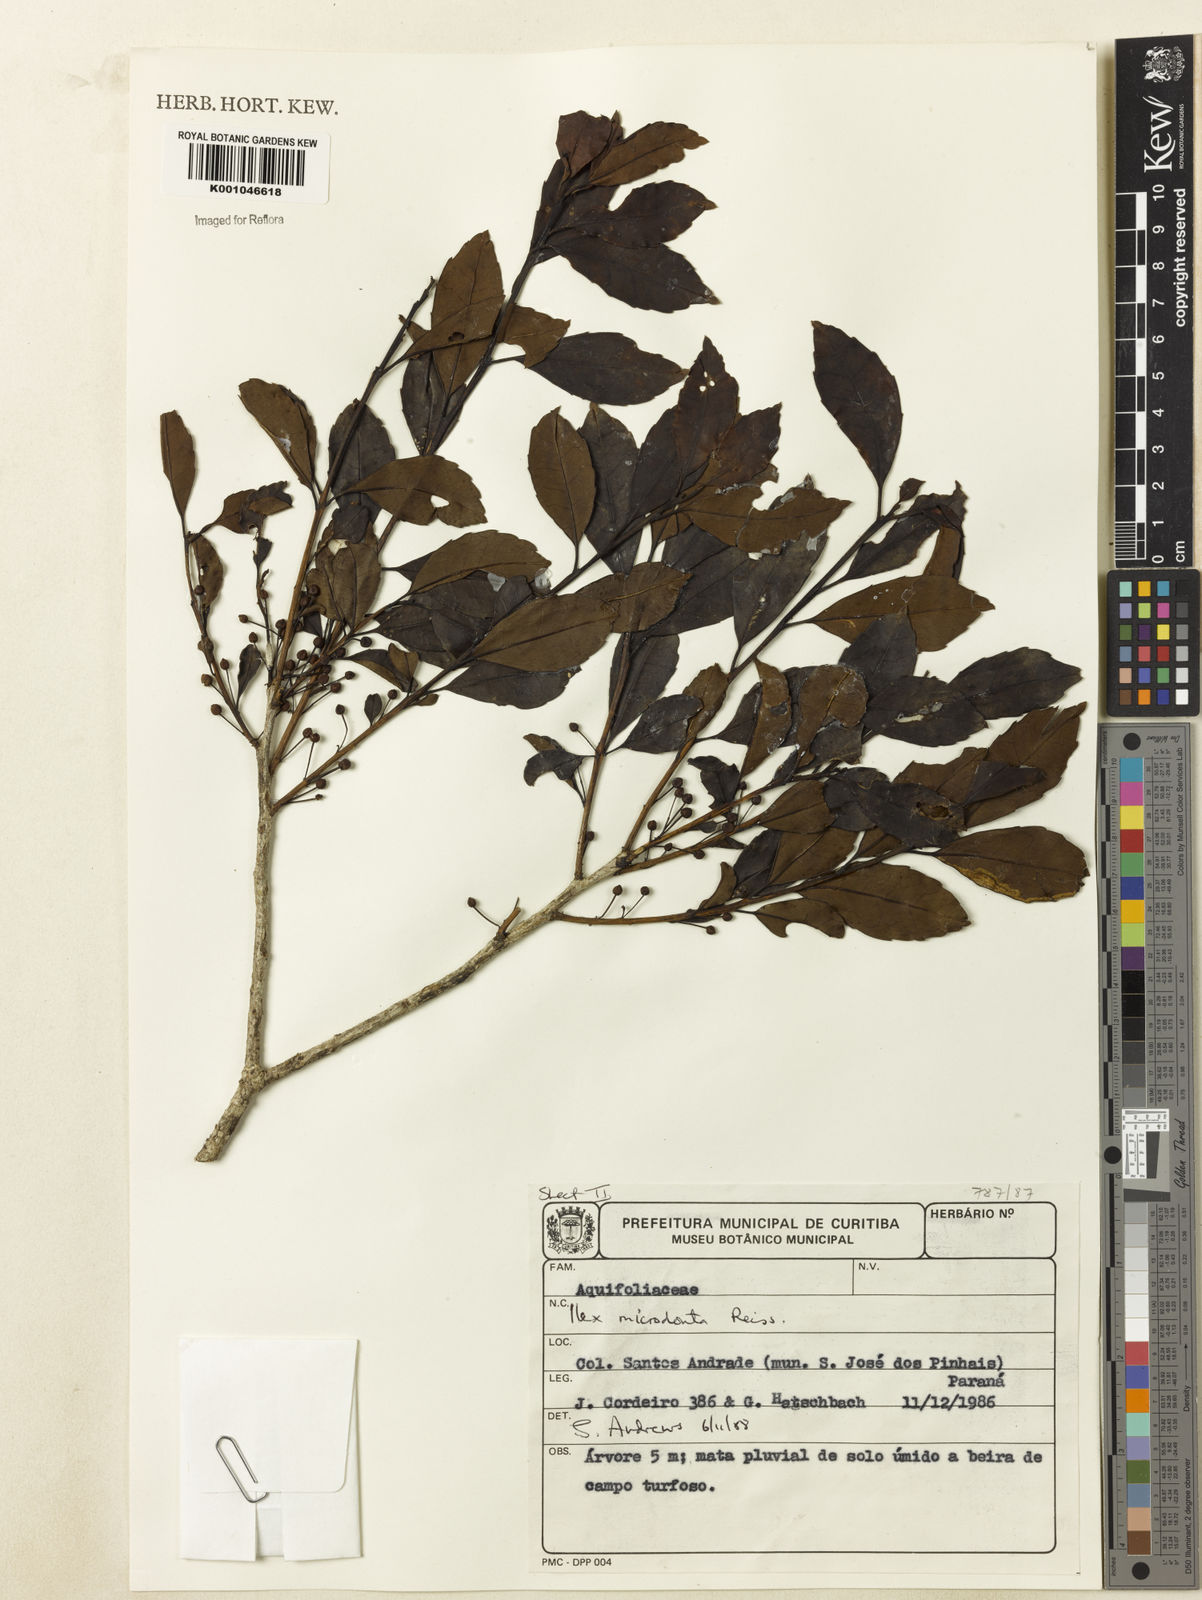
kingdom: Plantae
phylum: Tracheophyta
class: Magnoliopsida
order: Aquifoliales
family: Aquifoliaceae
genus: Ilex
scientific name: Ilex microdonta
